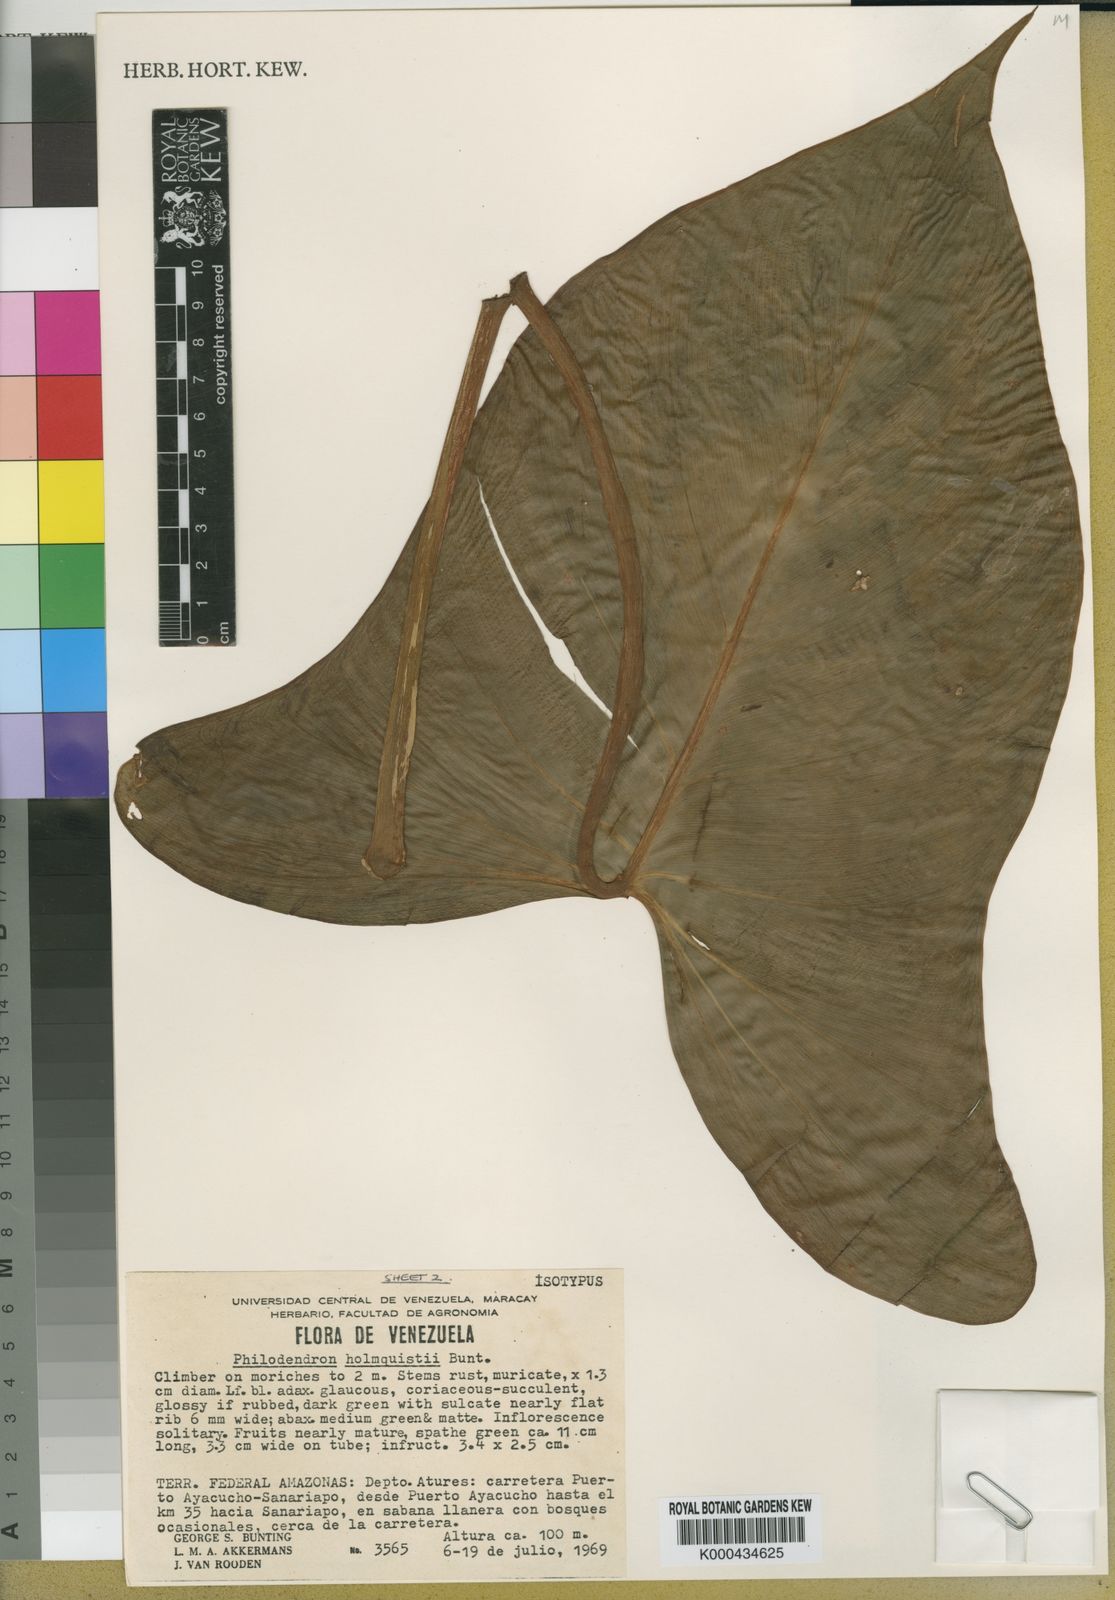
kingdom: Plantae
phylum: Tracheophyta
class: Liliopsida
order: Alismatales
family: Araceae
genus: Philodendron
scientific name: Philodendron brevispathum
